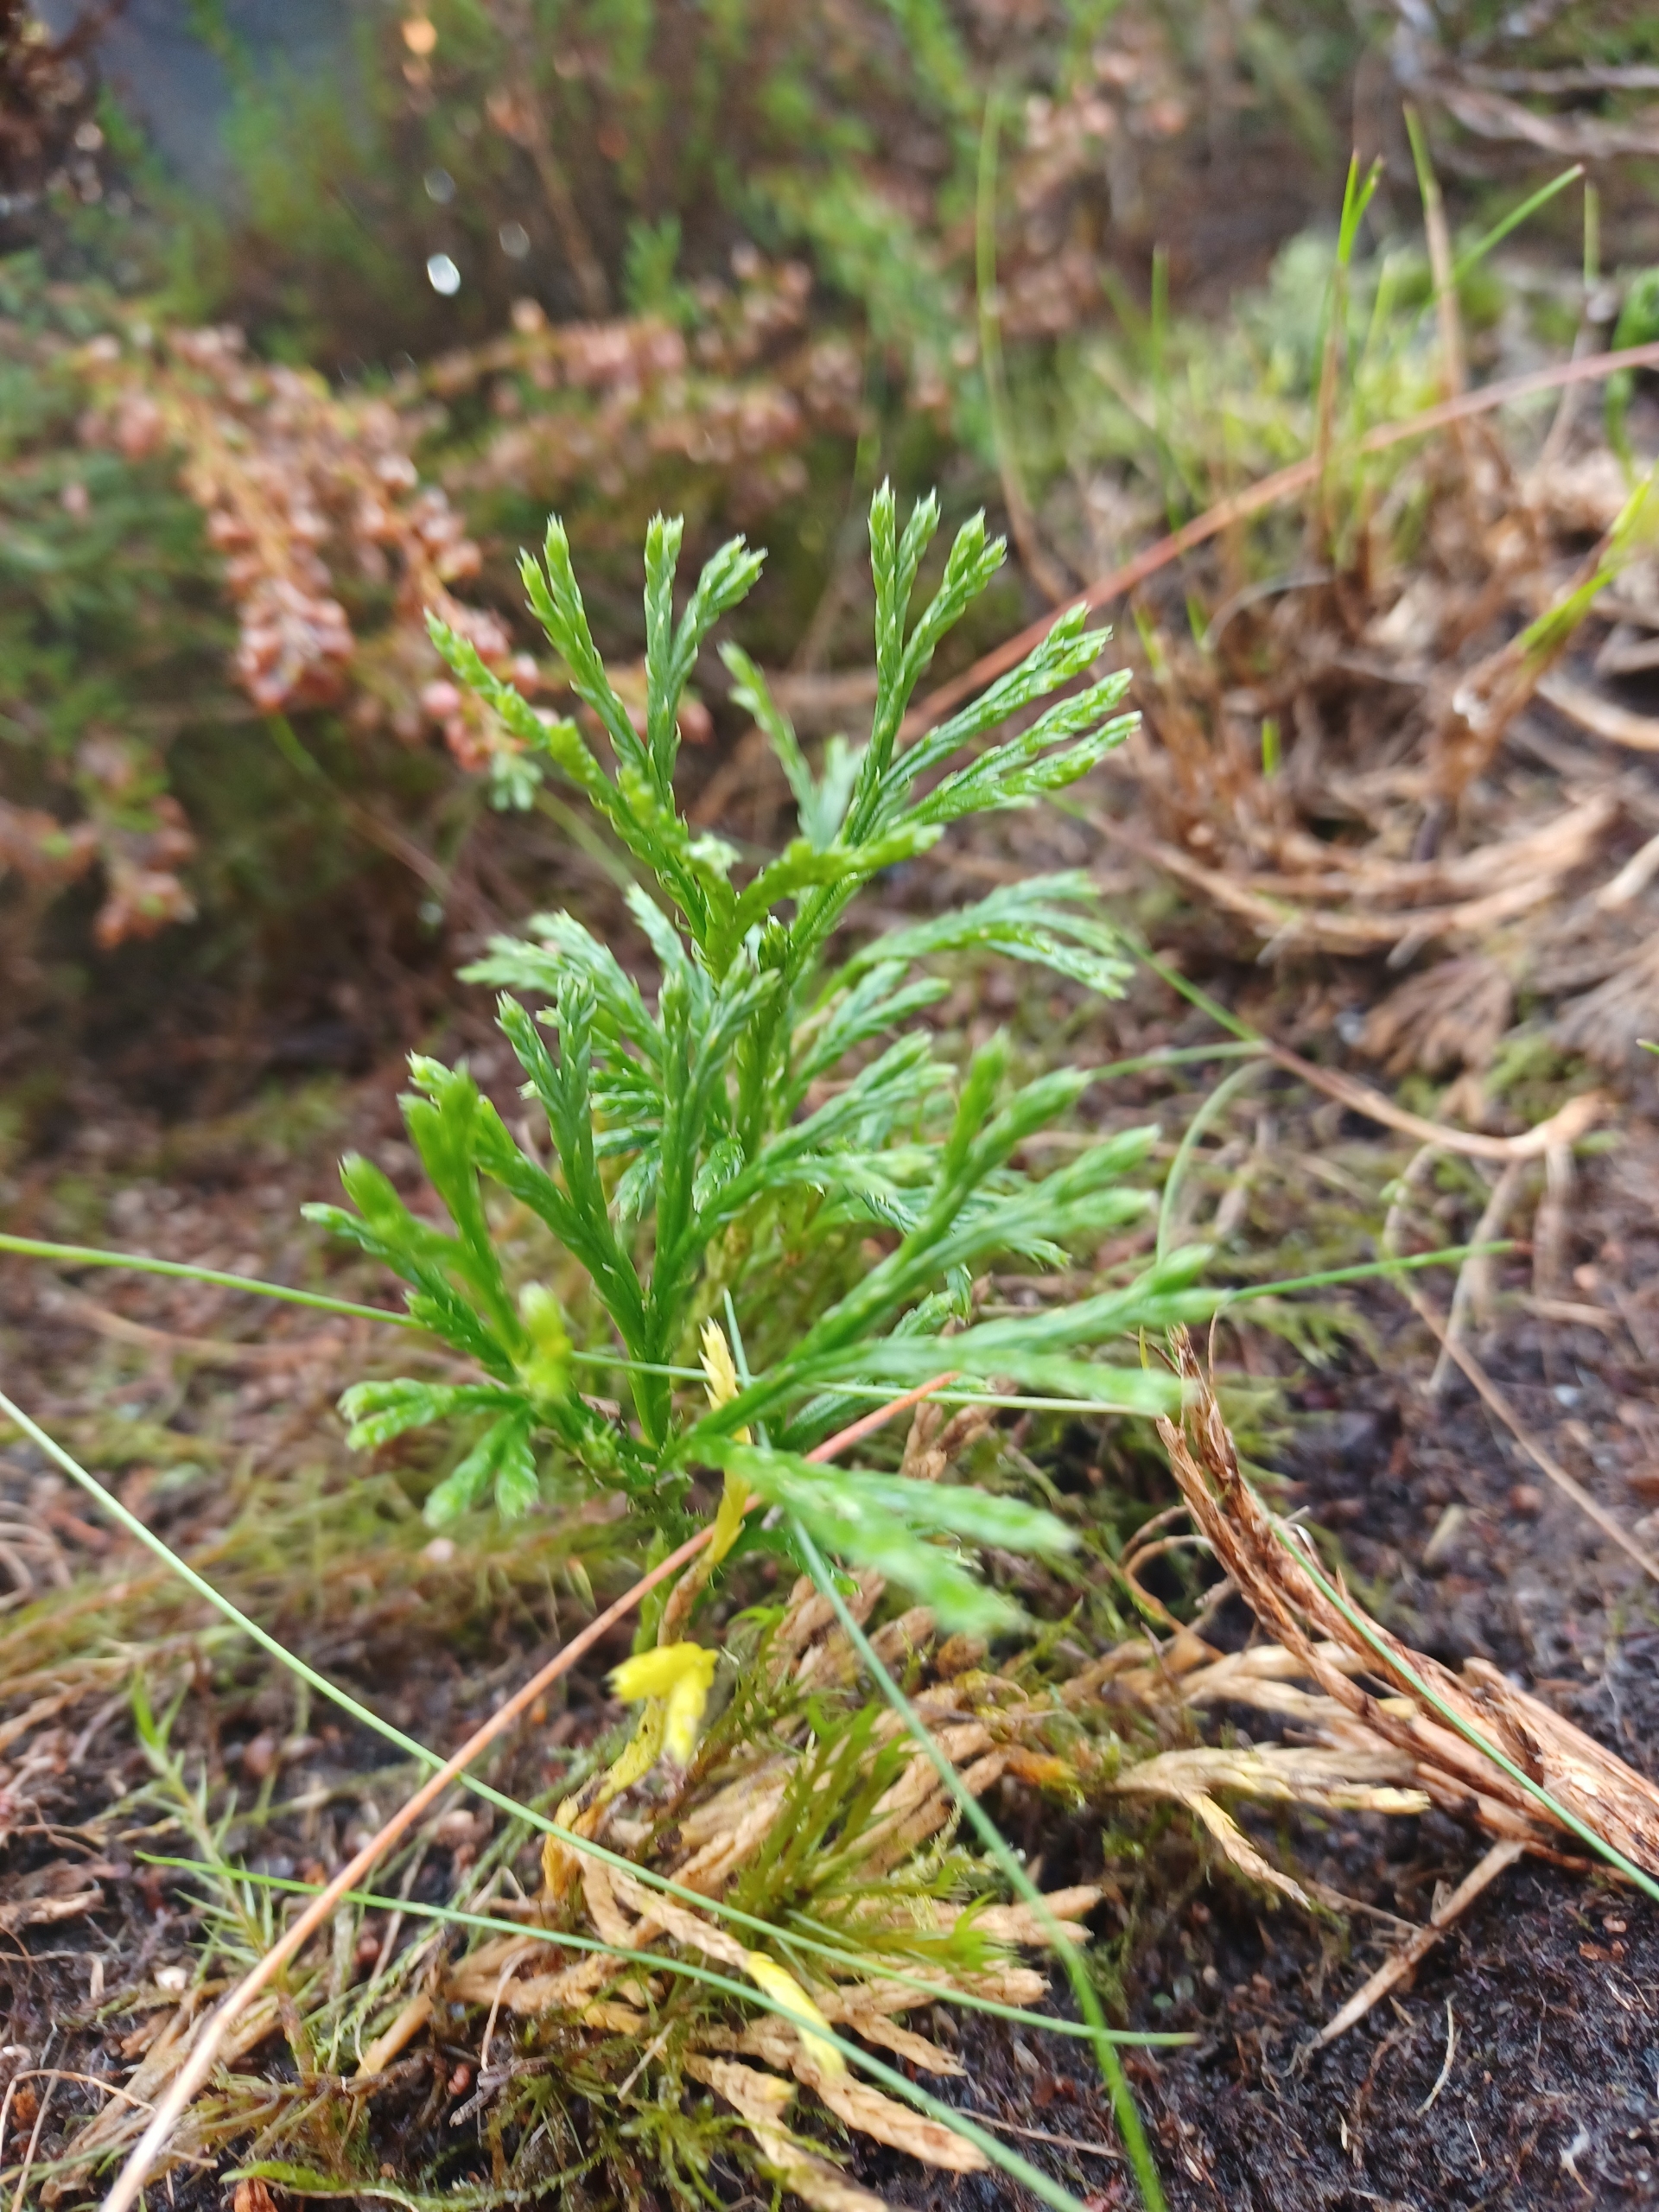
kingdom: Plantae
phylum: Tracheophyta
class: Lycopodiopsida
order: Lycopodiales
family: Lycopodiaceae
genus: Diphasiastrum
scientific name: Diphasiastrum tristachyum
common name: Flad ulvefod × cypres-ulvefod
